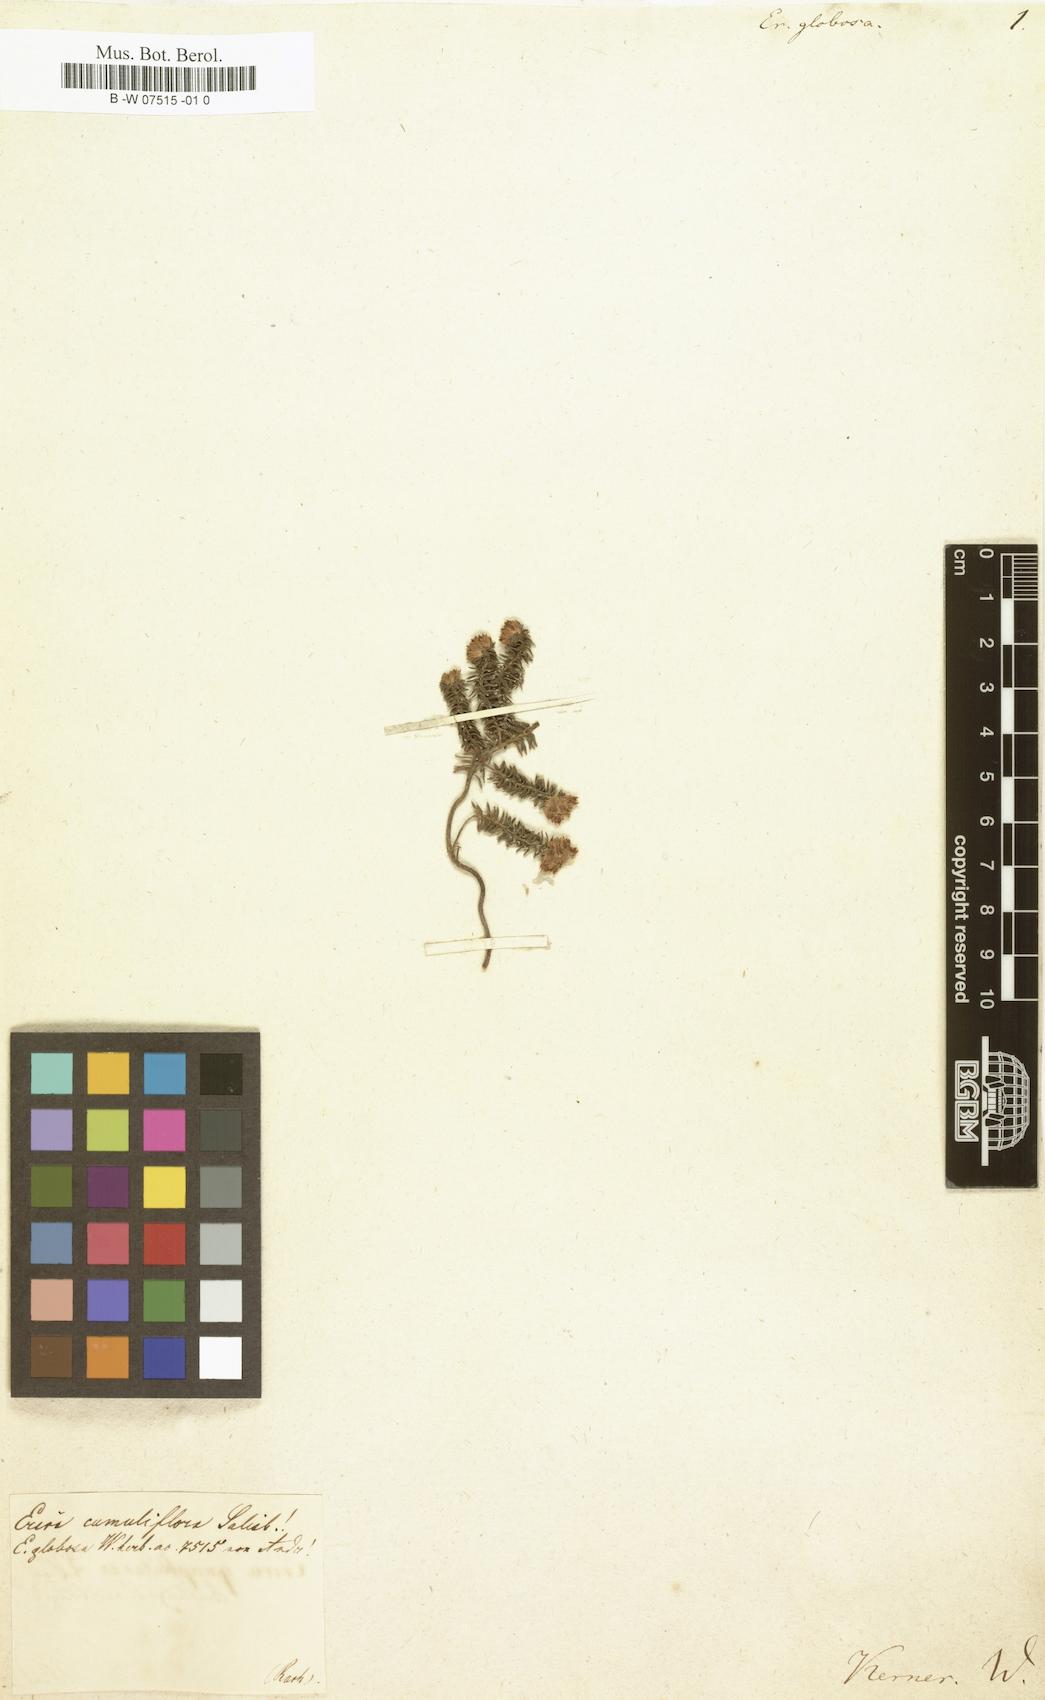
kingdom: Plantae
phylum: Tracheophyta
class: Magnoliopsida
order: Ericales
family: Ericaceae
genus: Erica
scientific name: Erica subterminalis
